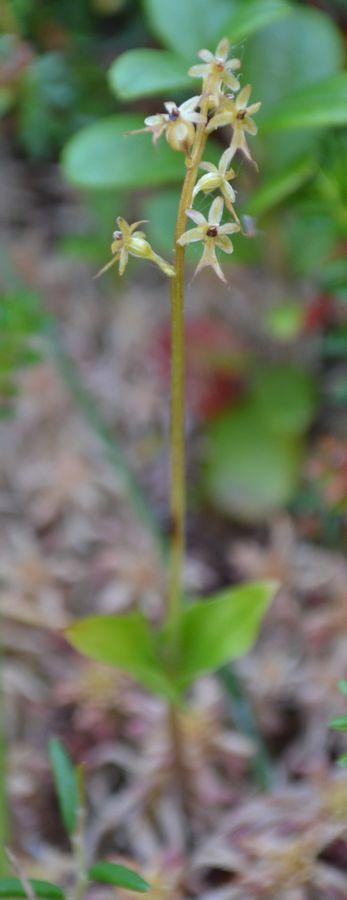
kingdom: Plantae
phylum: Tracheophyta
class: Liliopsida
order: Asparagales
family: Orchidaceae
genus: Neottia
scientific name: Neottia cordata
